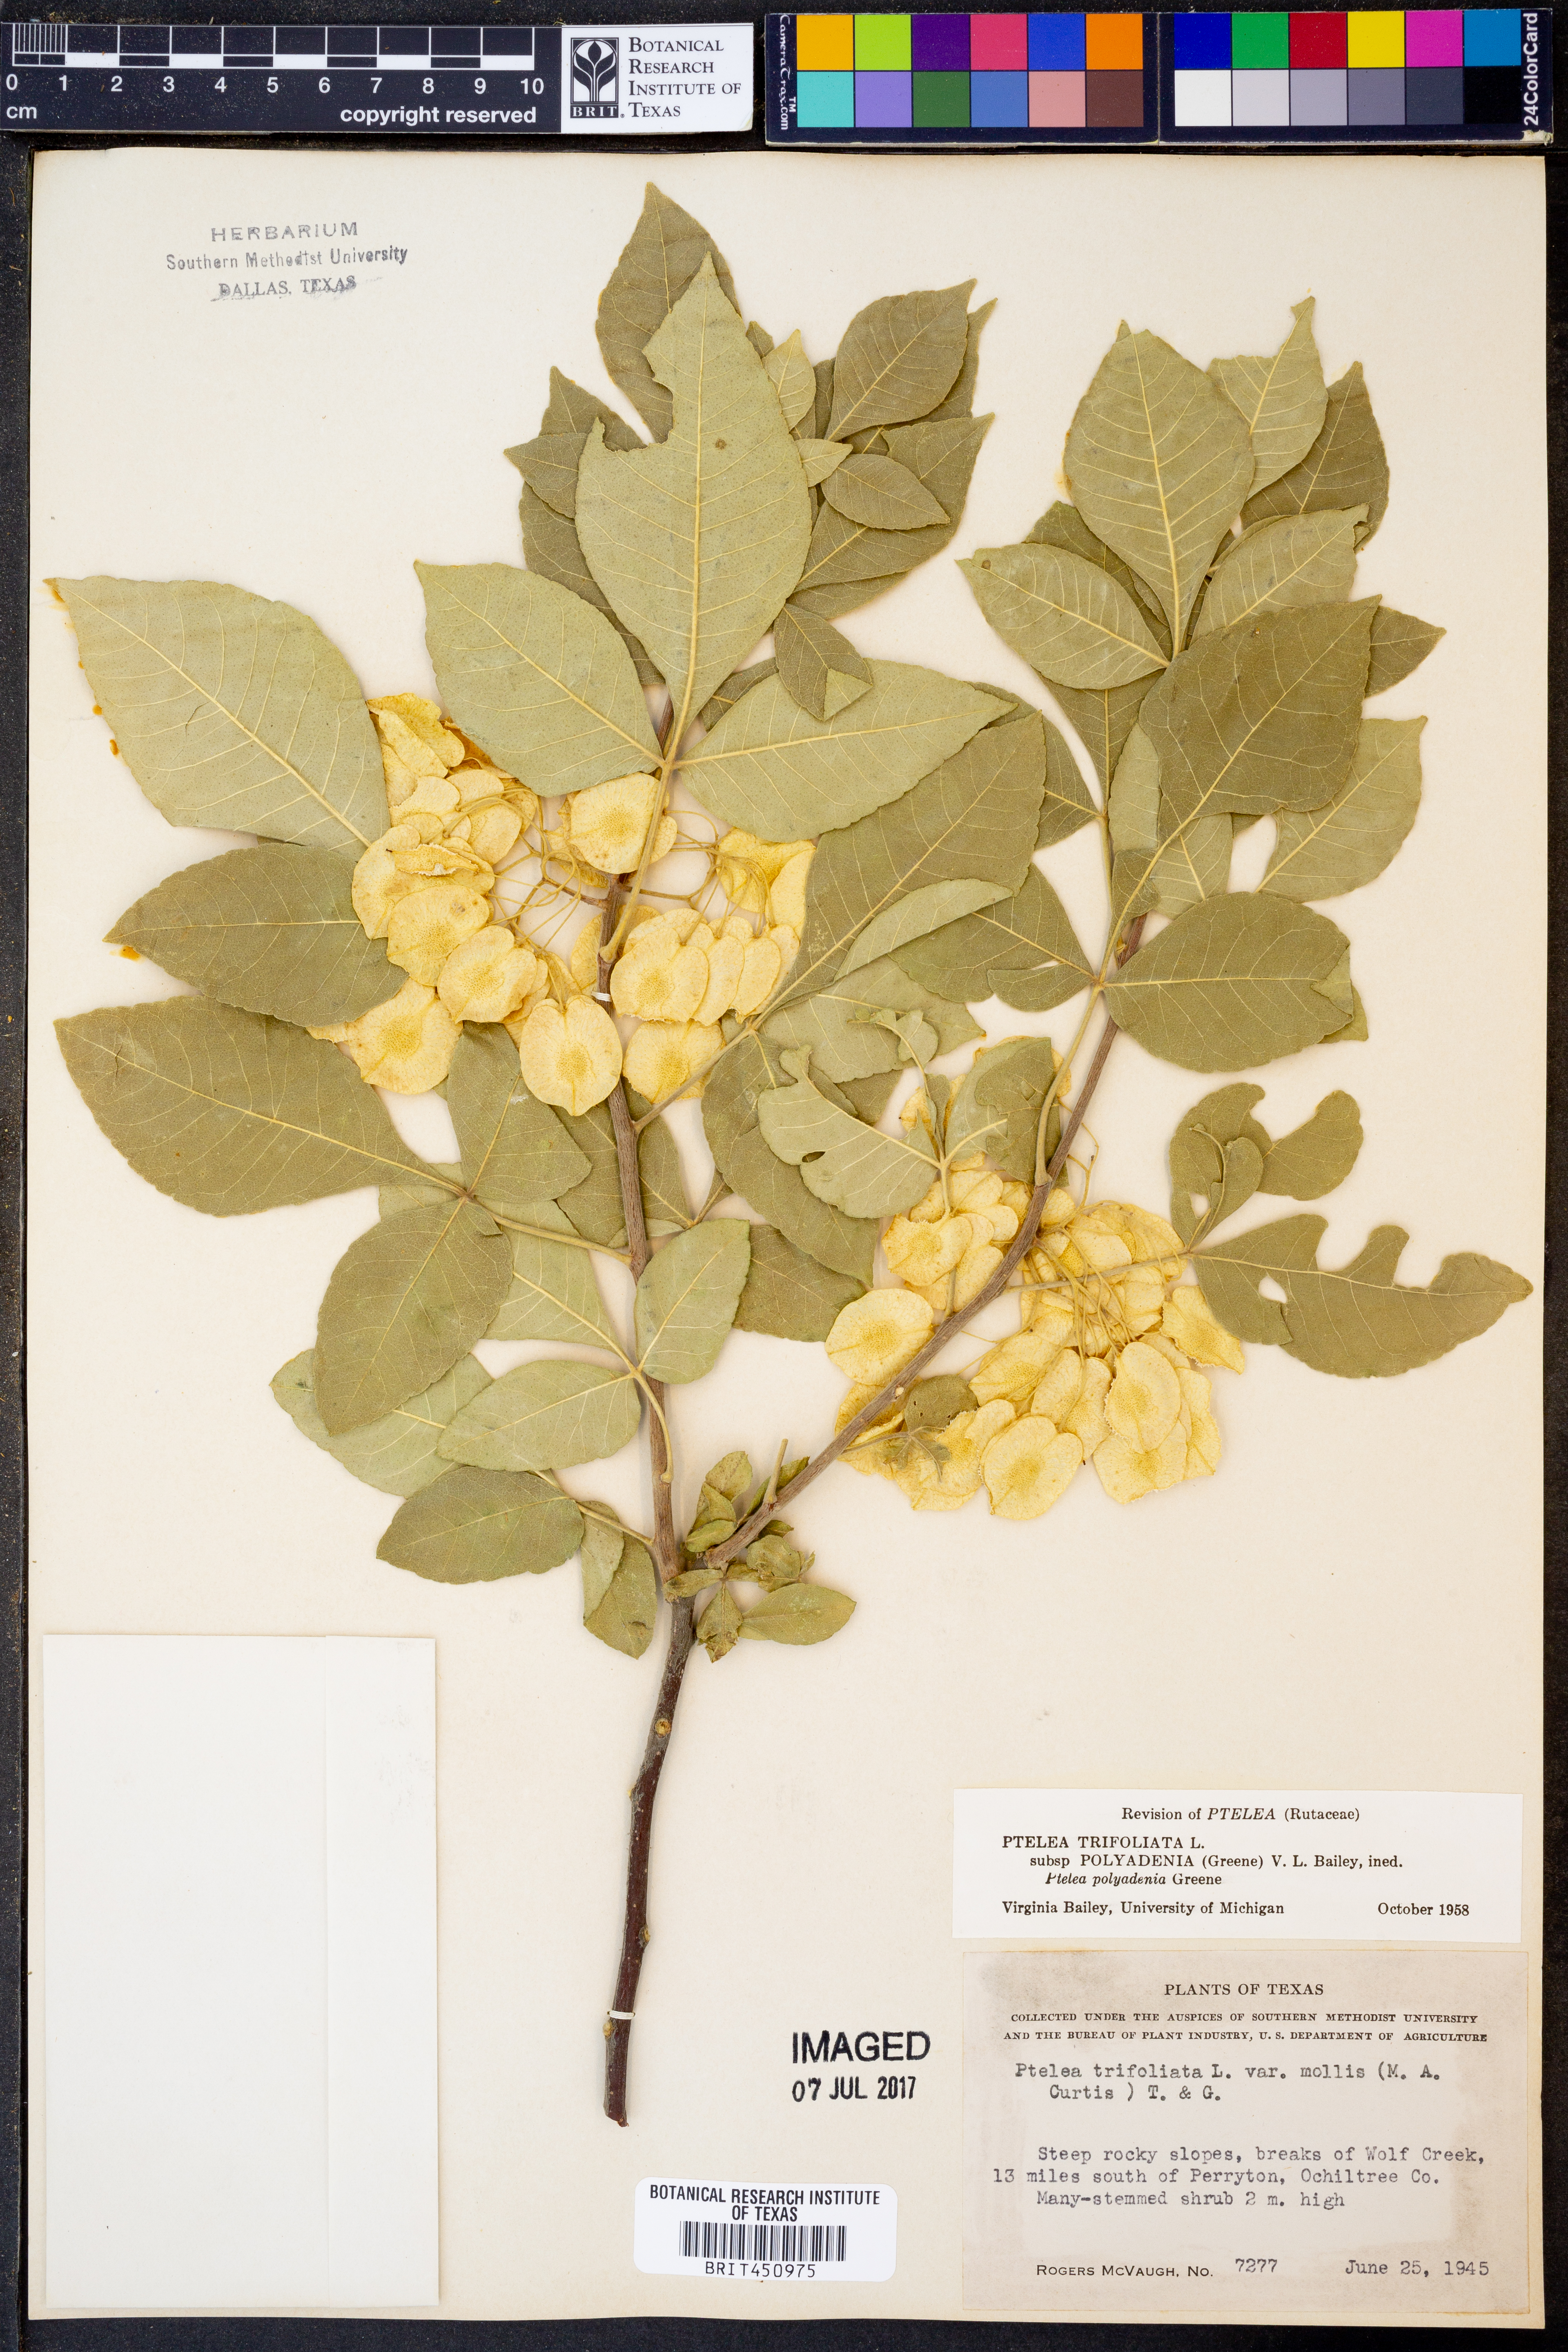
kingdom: Plantae
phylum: Tracheophyta
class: Magnoliopsida
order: Sapindales
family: Rutaceae
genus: Ptelea
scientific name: Ptelea trifoliata
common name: Common hop-tree
